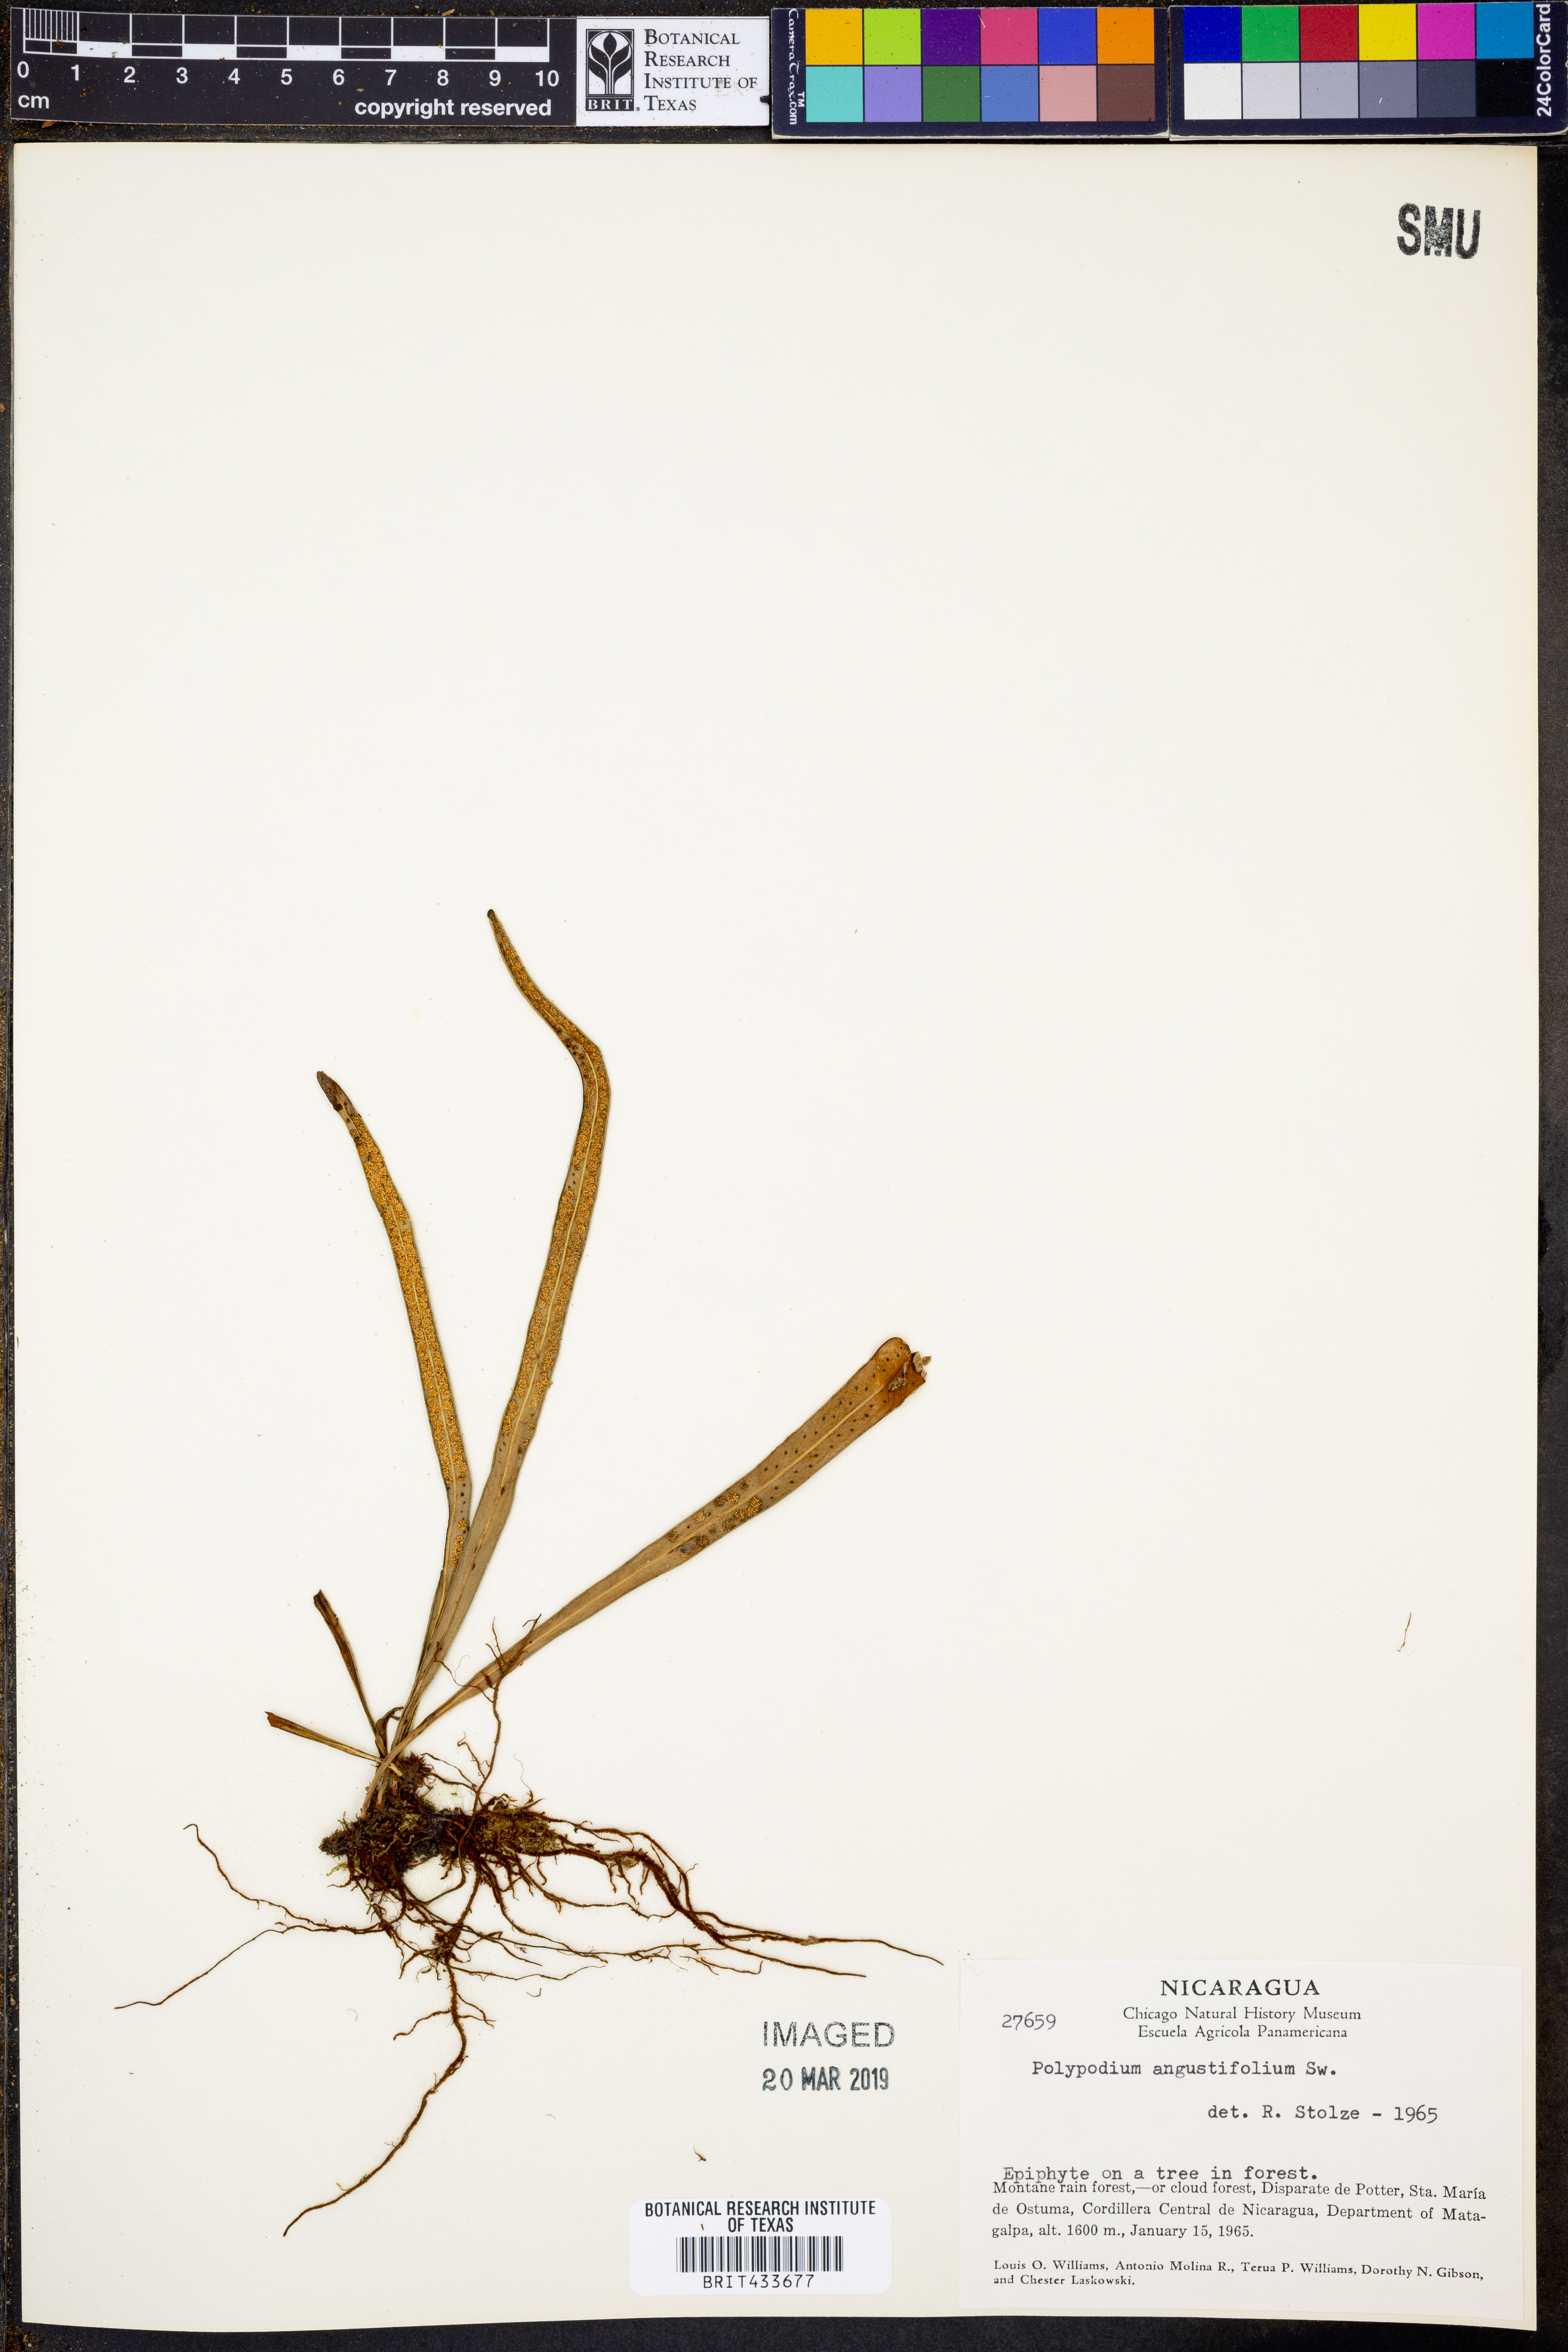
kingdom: Plantae
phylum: Tracheophyta
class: Polypodiopsida
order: Polypodiales
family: Polypodiaceae
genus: Campyloneurum
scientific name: Campyloneurum angustifolium
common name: Narrow-leaf strap fern
